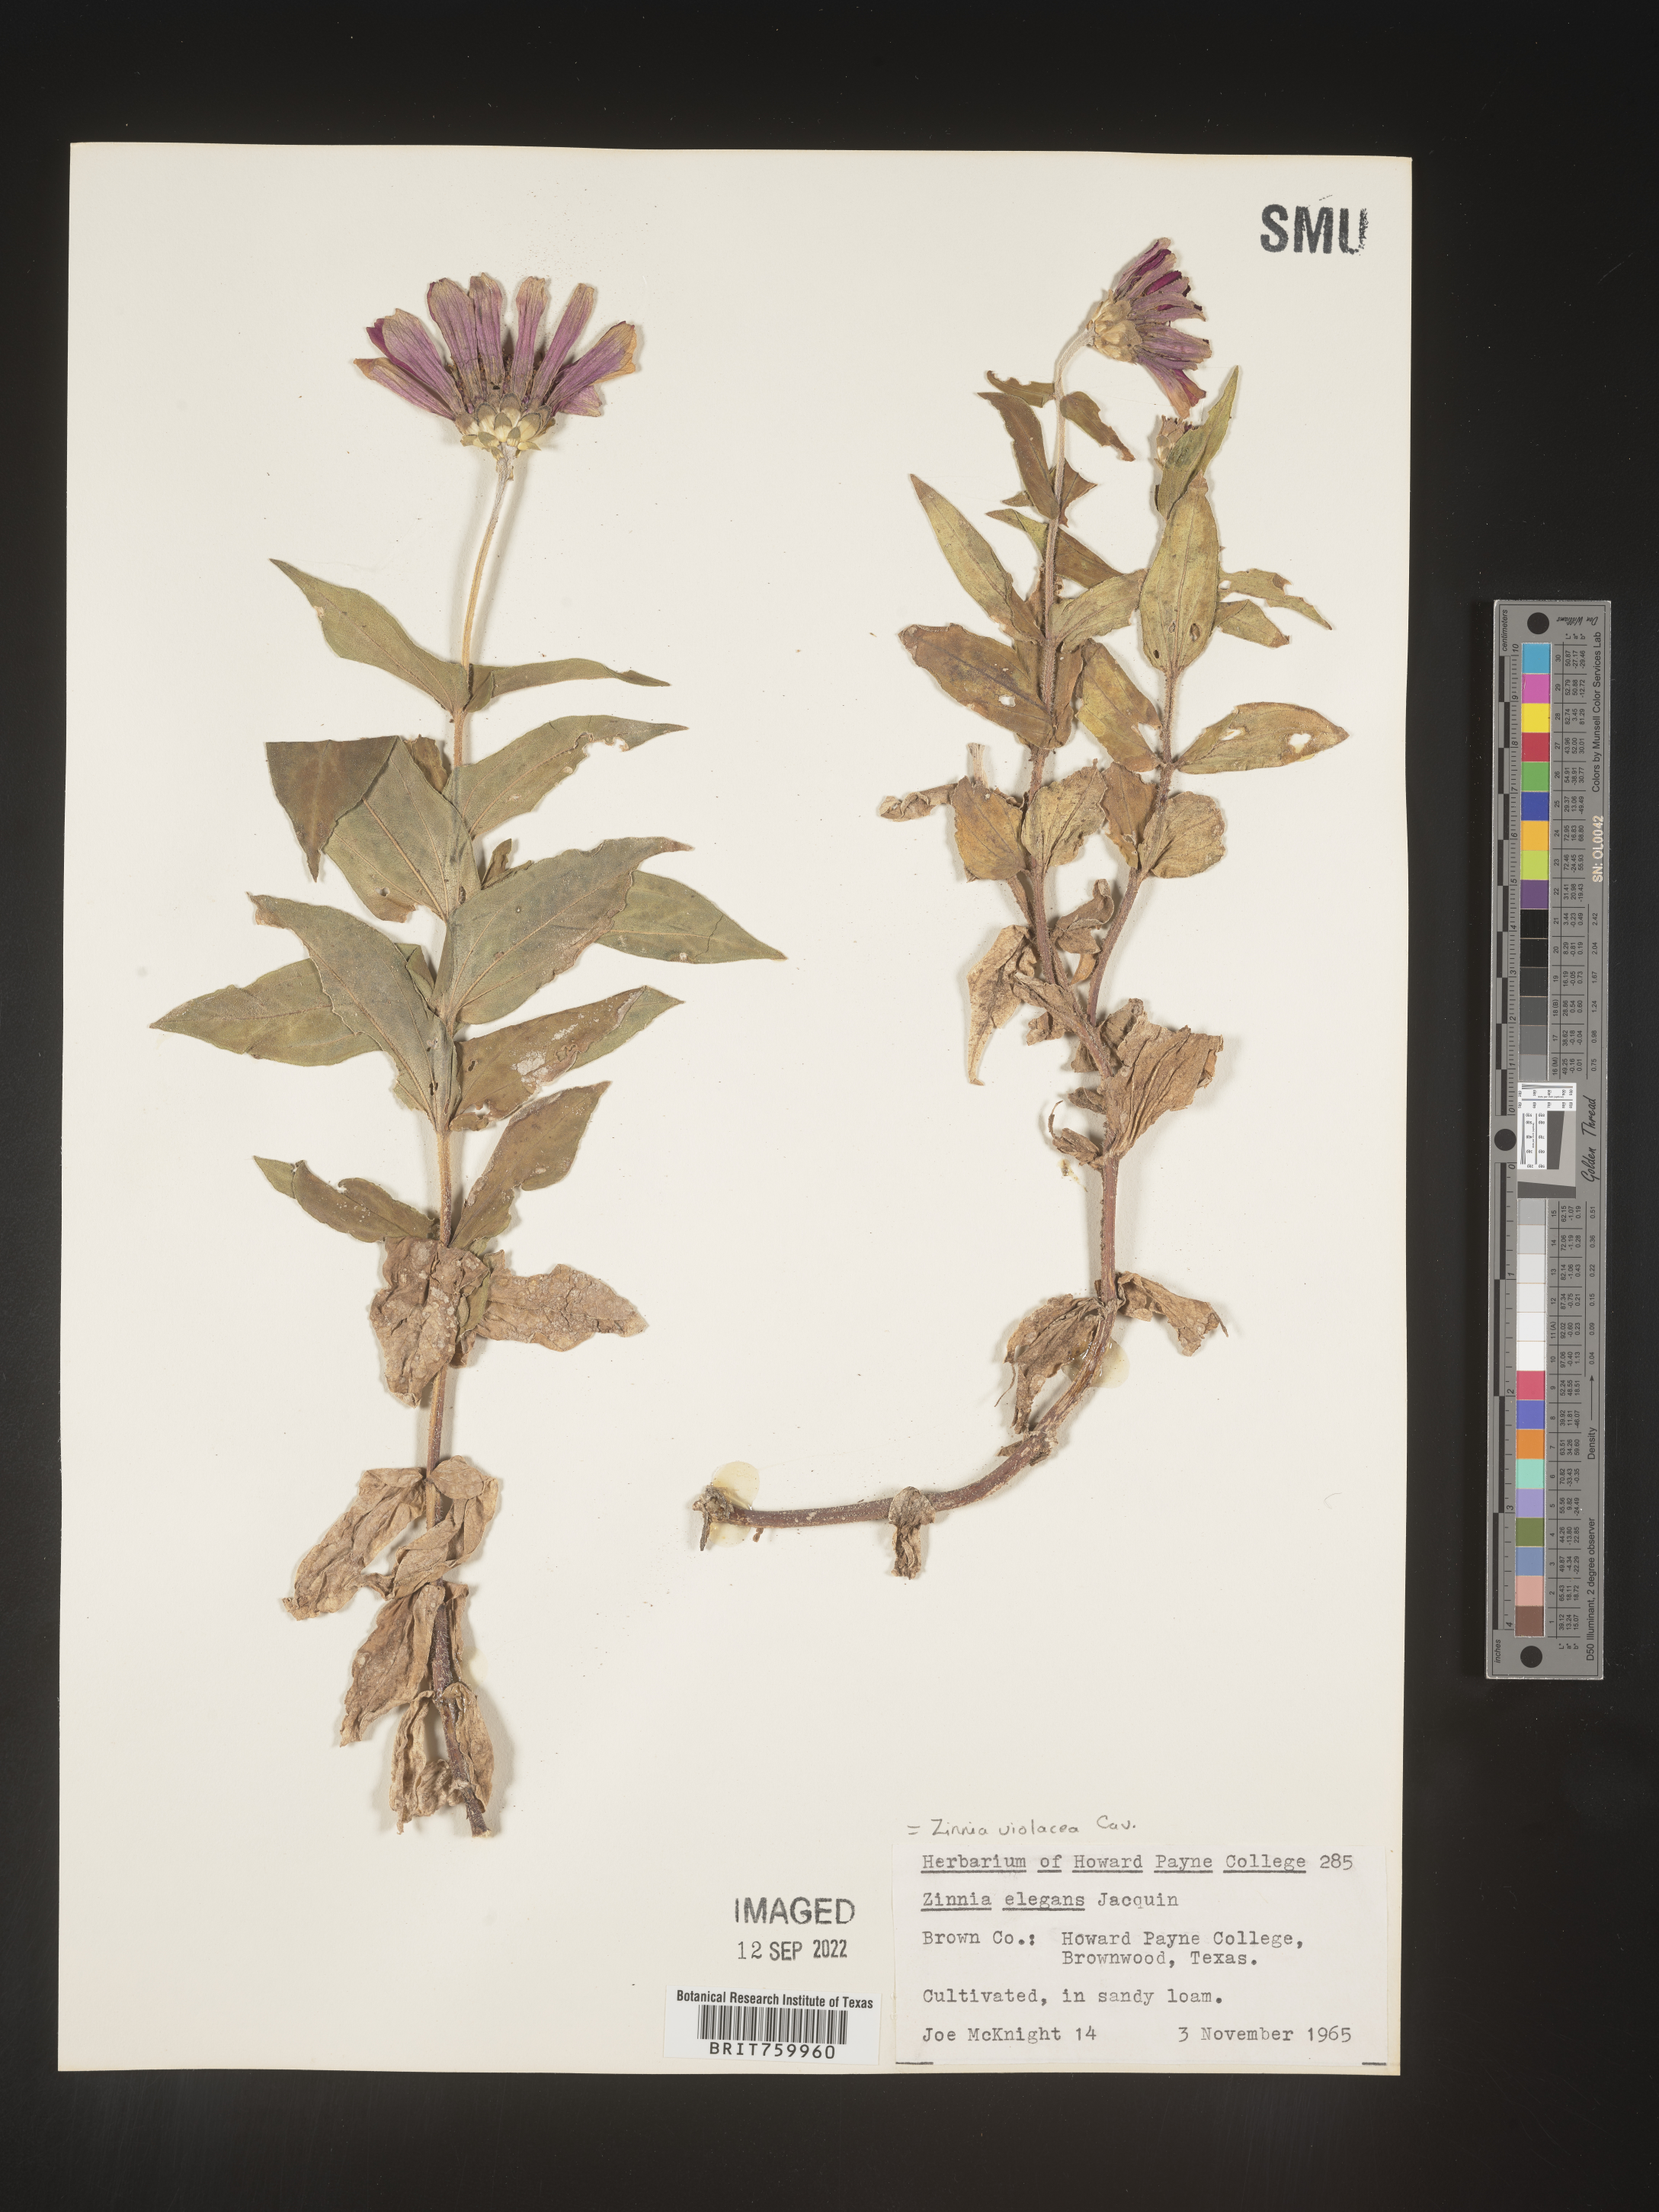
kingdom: Plantae
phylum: Tracheophyta
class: Magnoliopsida
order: Asterales
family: Asteraceae
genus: Zinnia
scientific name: Zinnia
